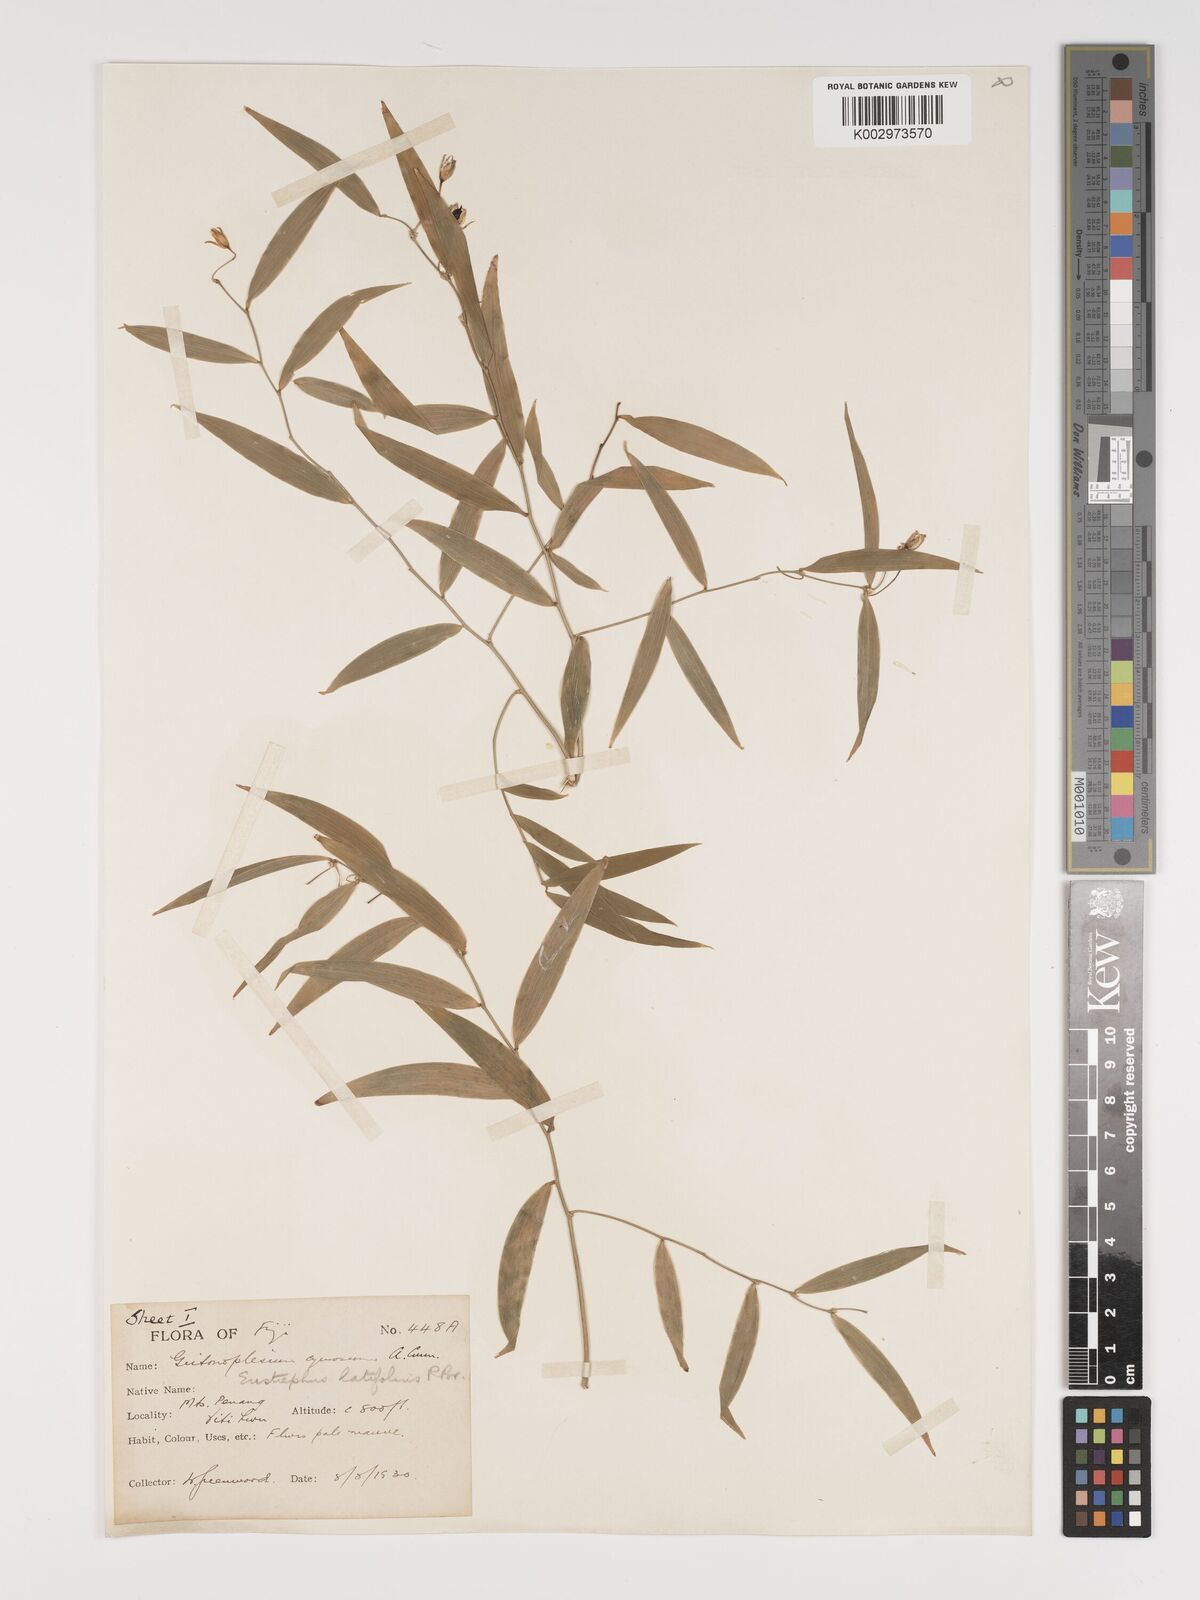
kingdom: Plantae
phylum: Tracheophyta
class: Liliopsida
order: Asparagales
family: Asparagaceae
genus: Eustrephus
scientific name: Eustrephus latifolius
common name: Orangevine
